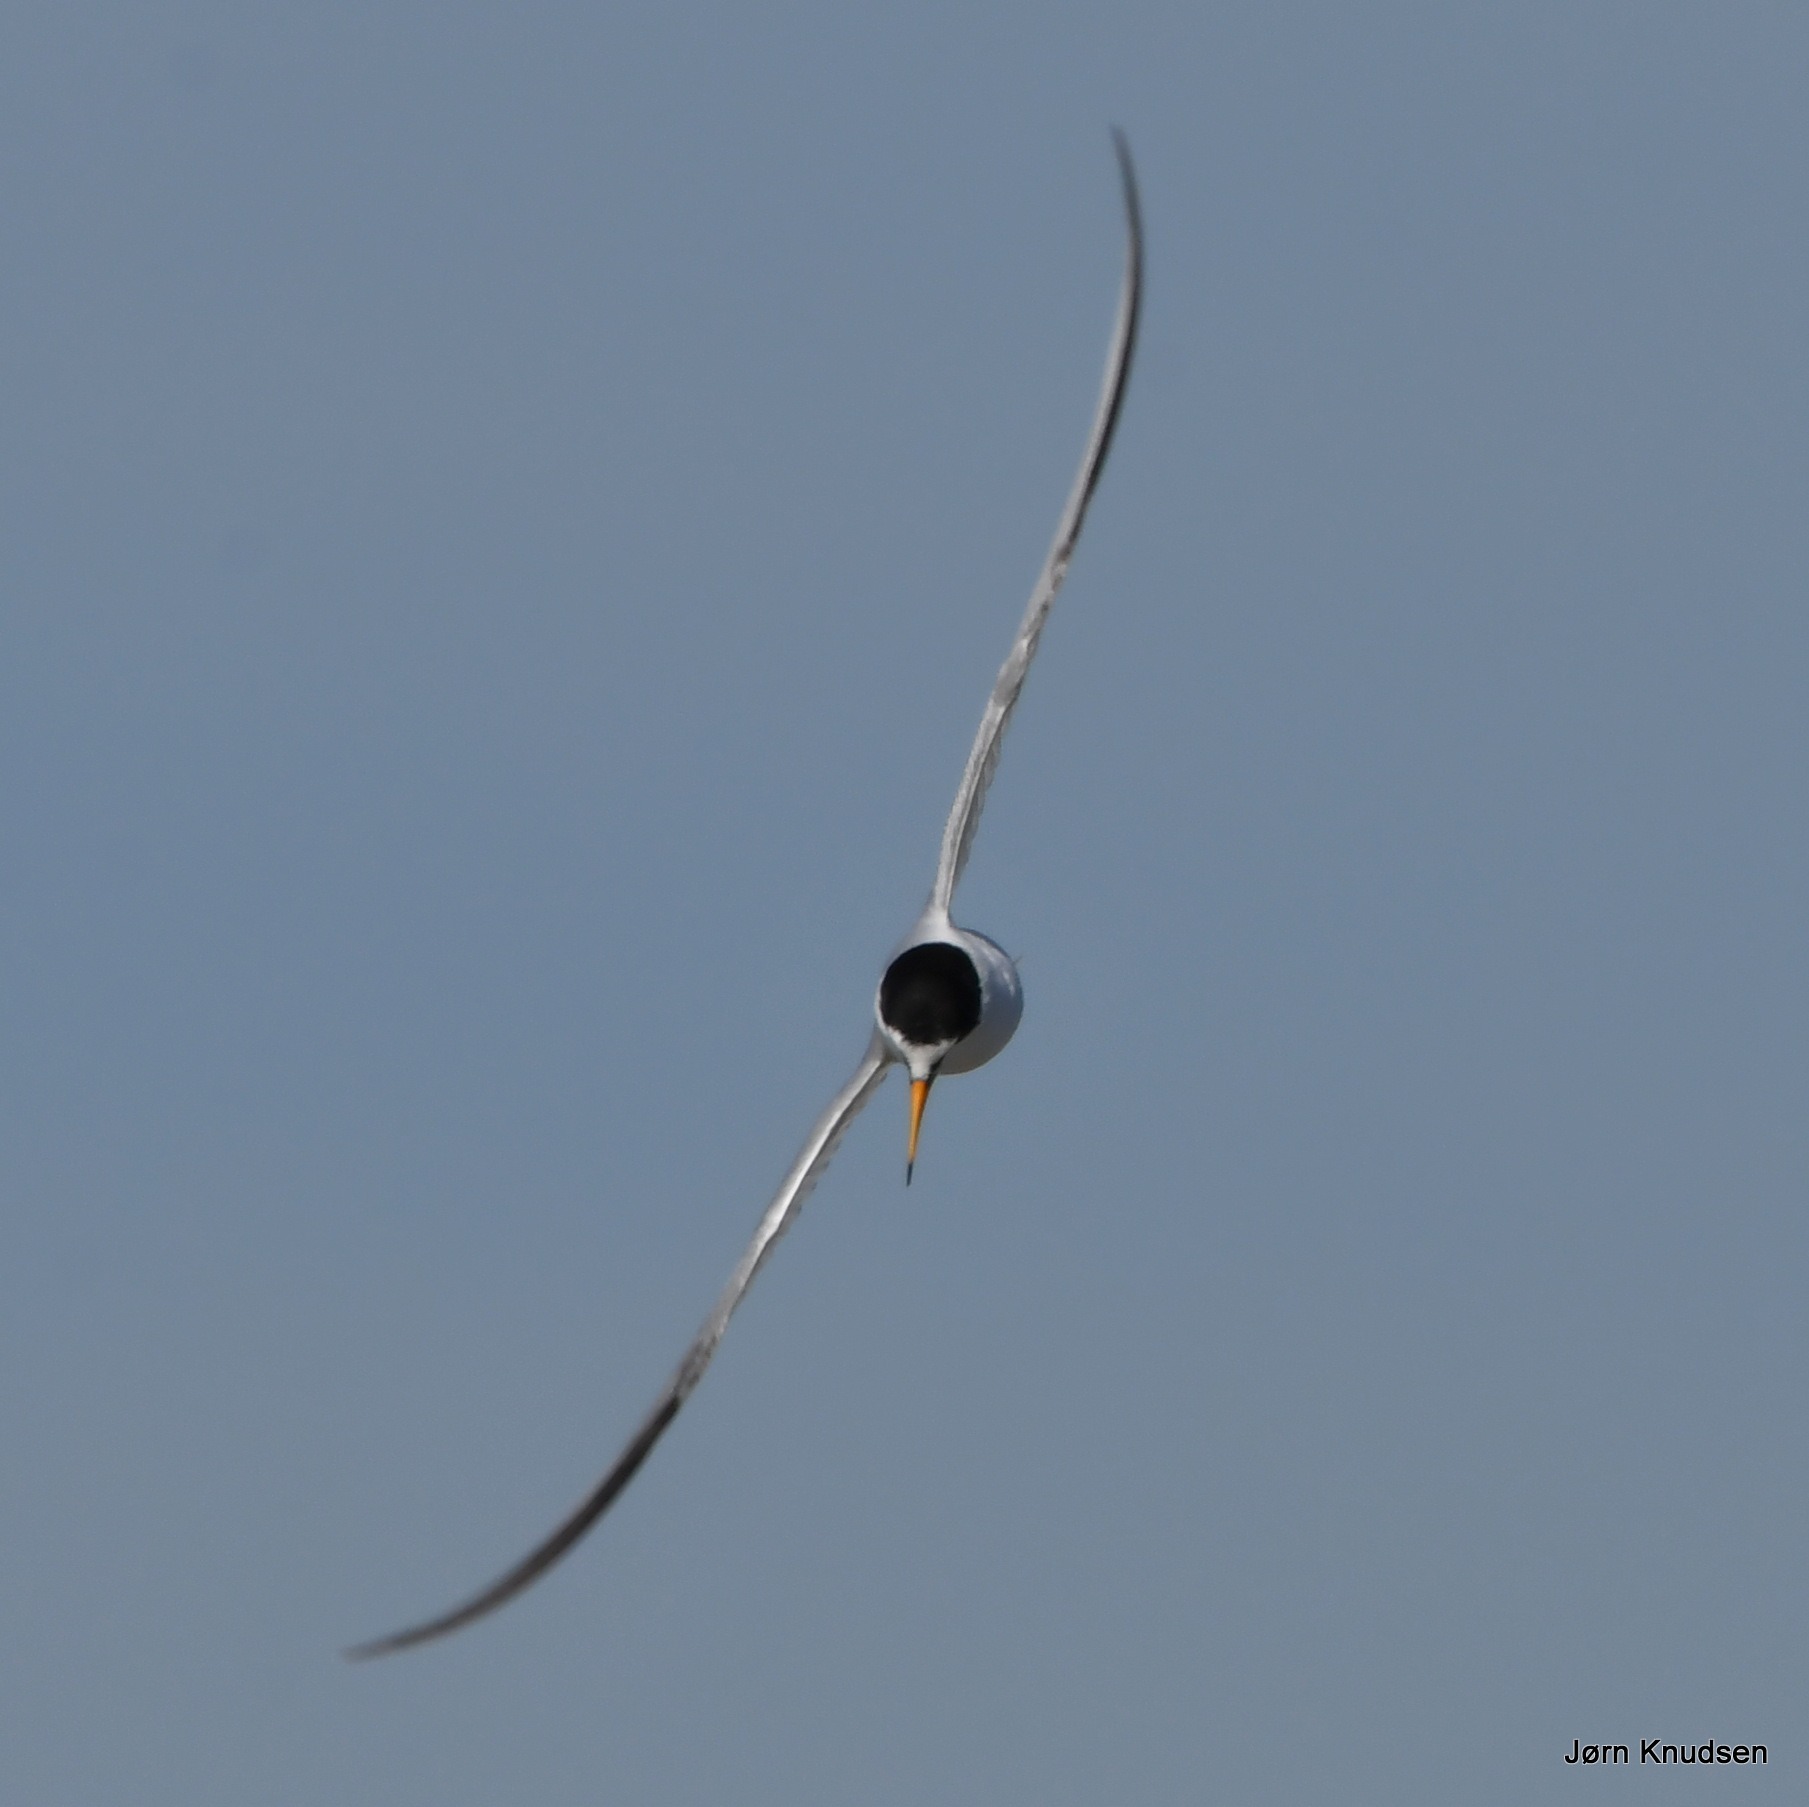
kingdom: Animalia
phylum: Chordata
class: Aves
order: Charadriiformes
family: Laridae
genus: Sternula
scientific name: Sternula albifrons
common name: Dværgterne
